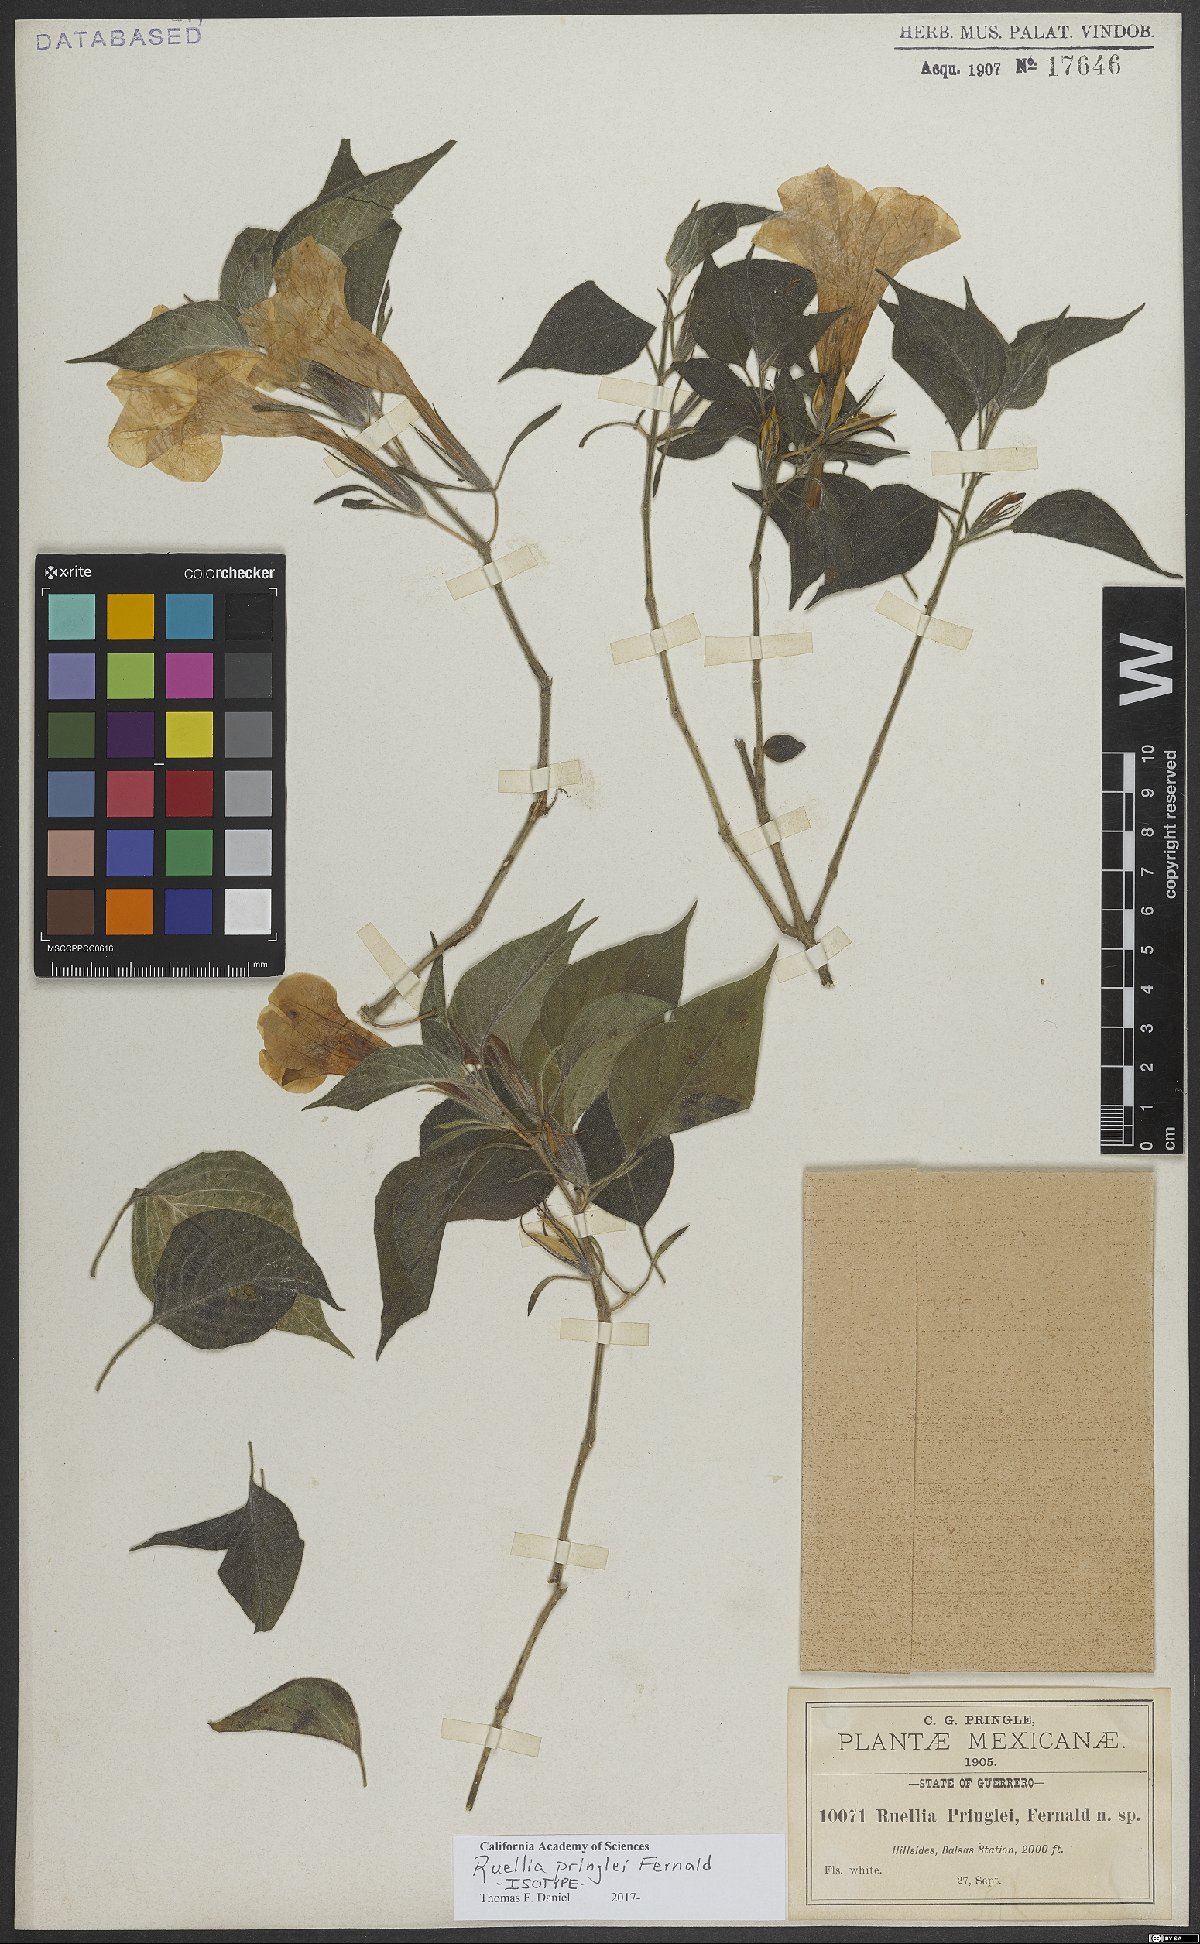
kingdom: Plantae
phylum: Tracheophyta
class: Magnoliopsida
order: Lamiales
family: Acanthaceae
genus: Ruellia
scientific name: Ruellia pringlei
